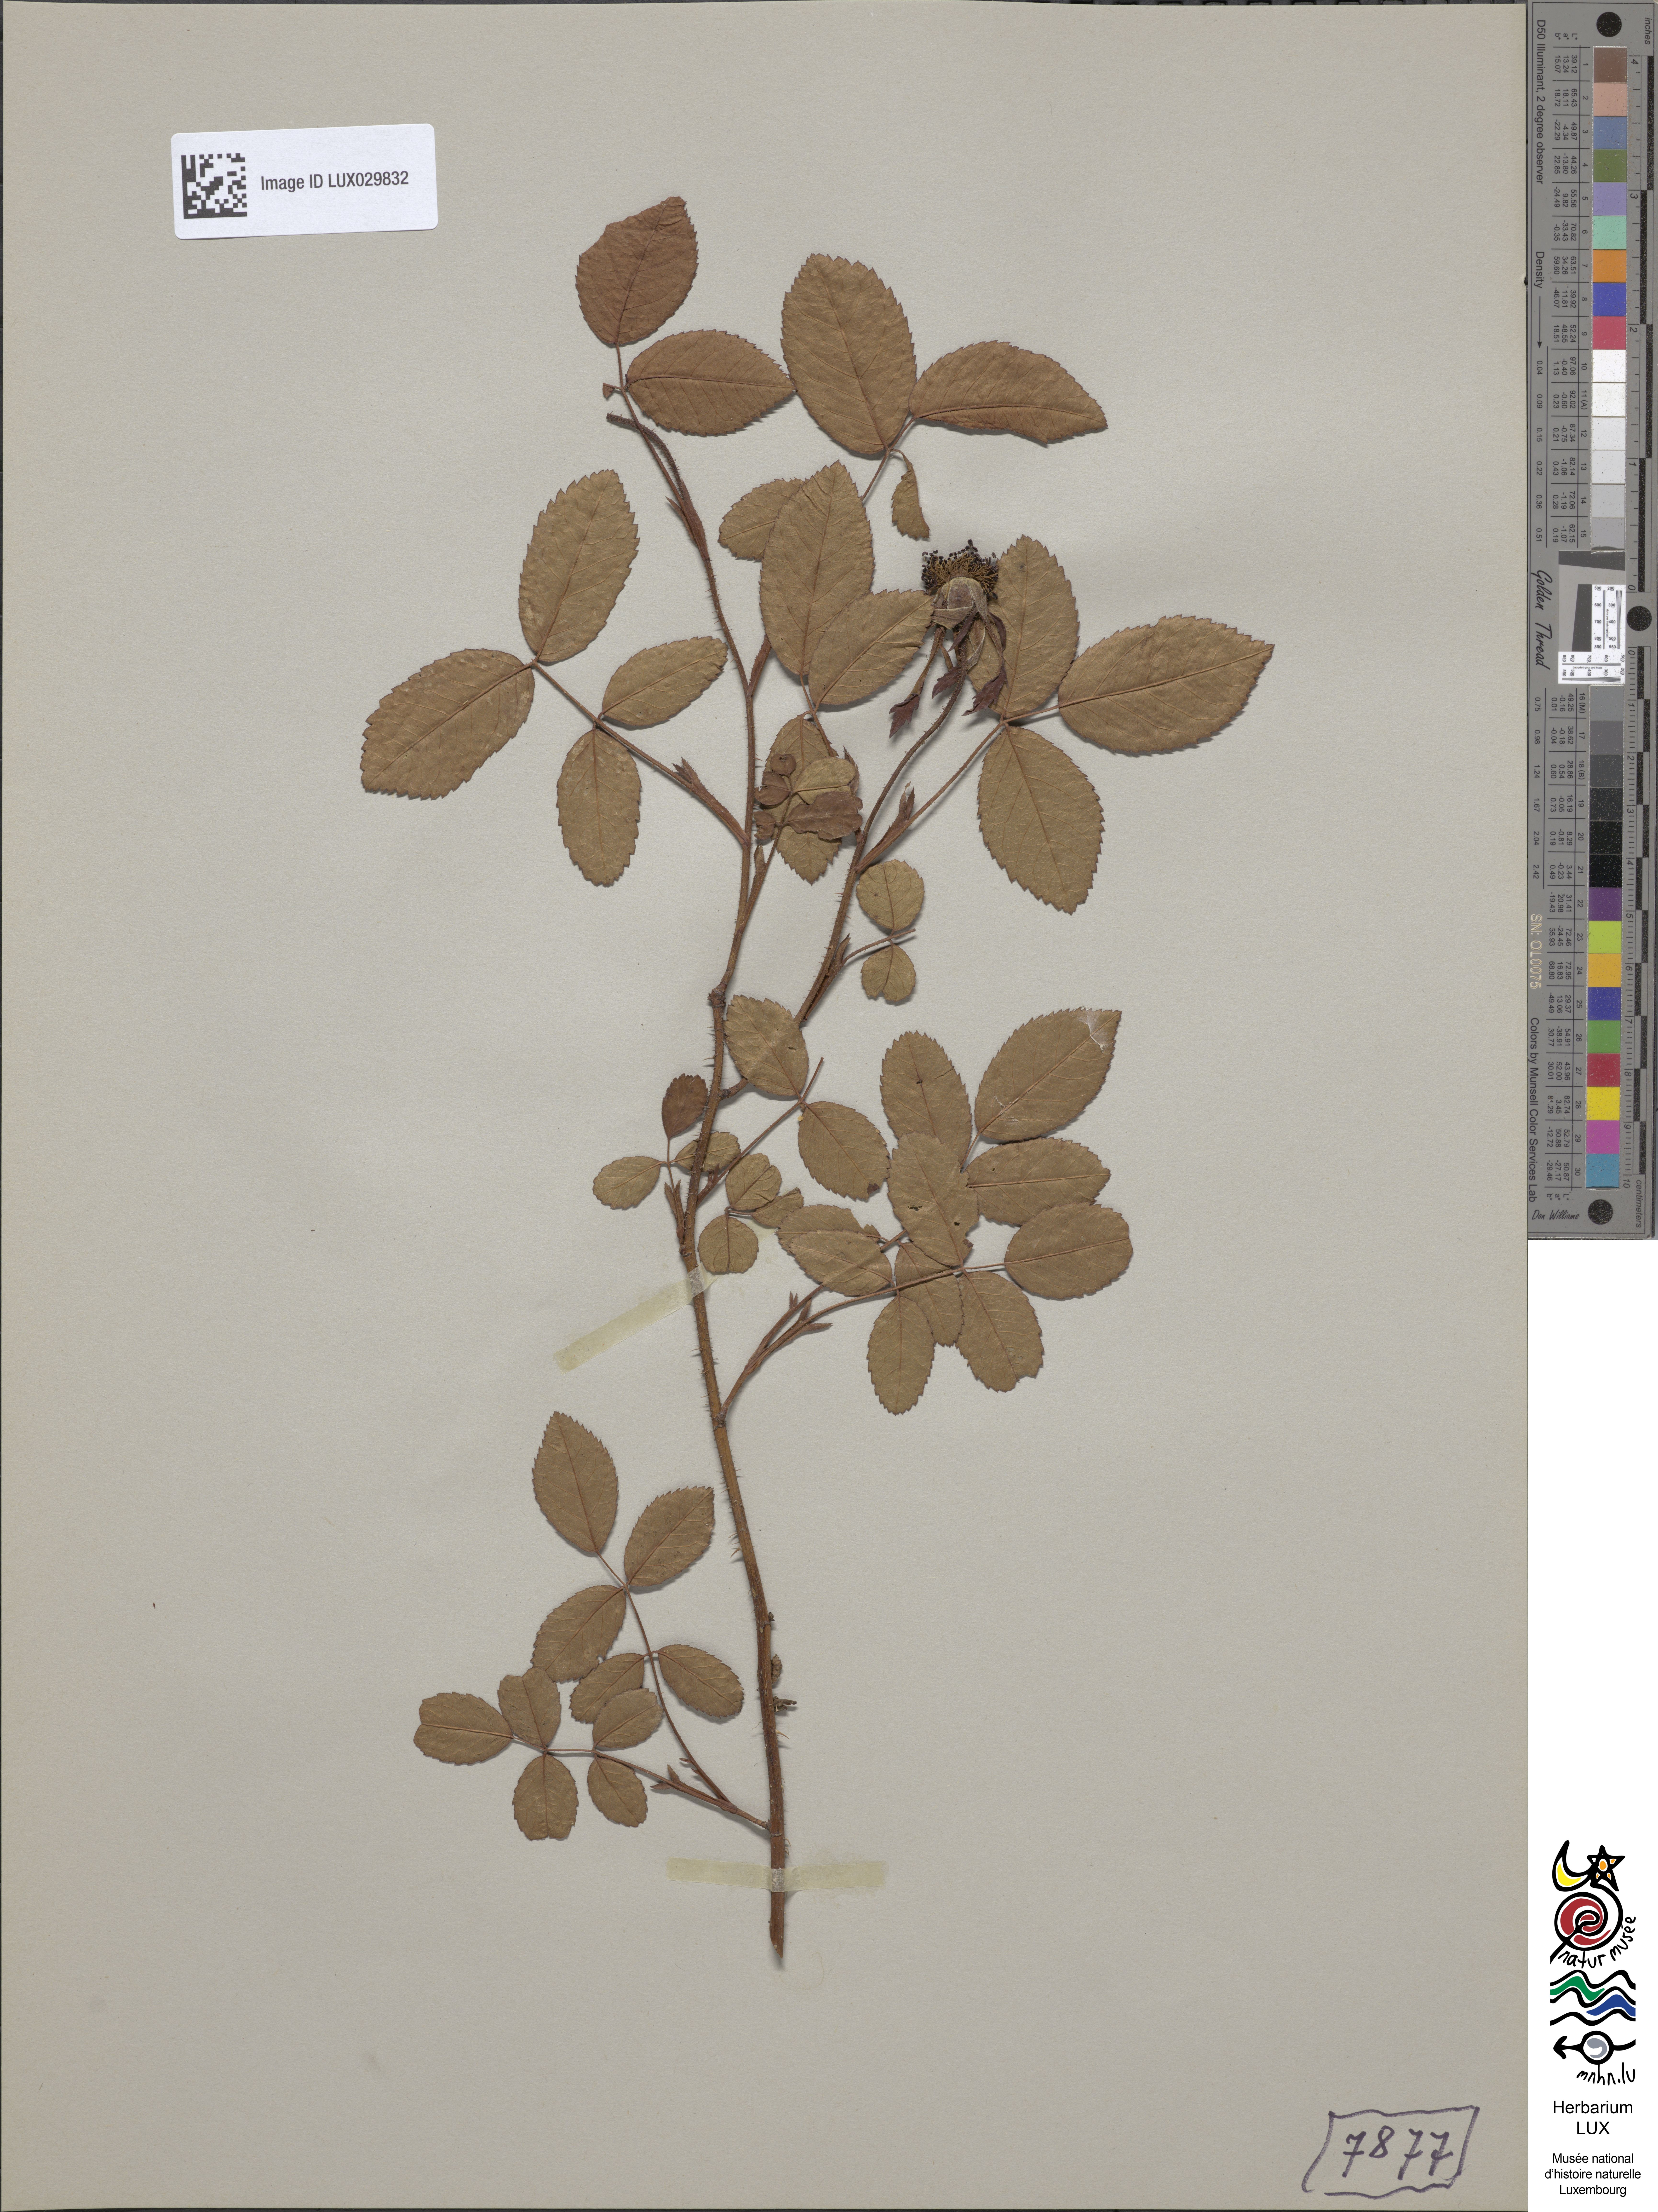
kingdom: Plantae
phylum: Tracheophyta
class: Magnoliopsida
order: Rosales
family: Rosaceae
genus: Rosa
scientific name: Rosa gallica
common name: French rose
